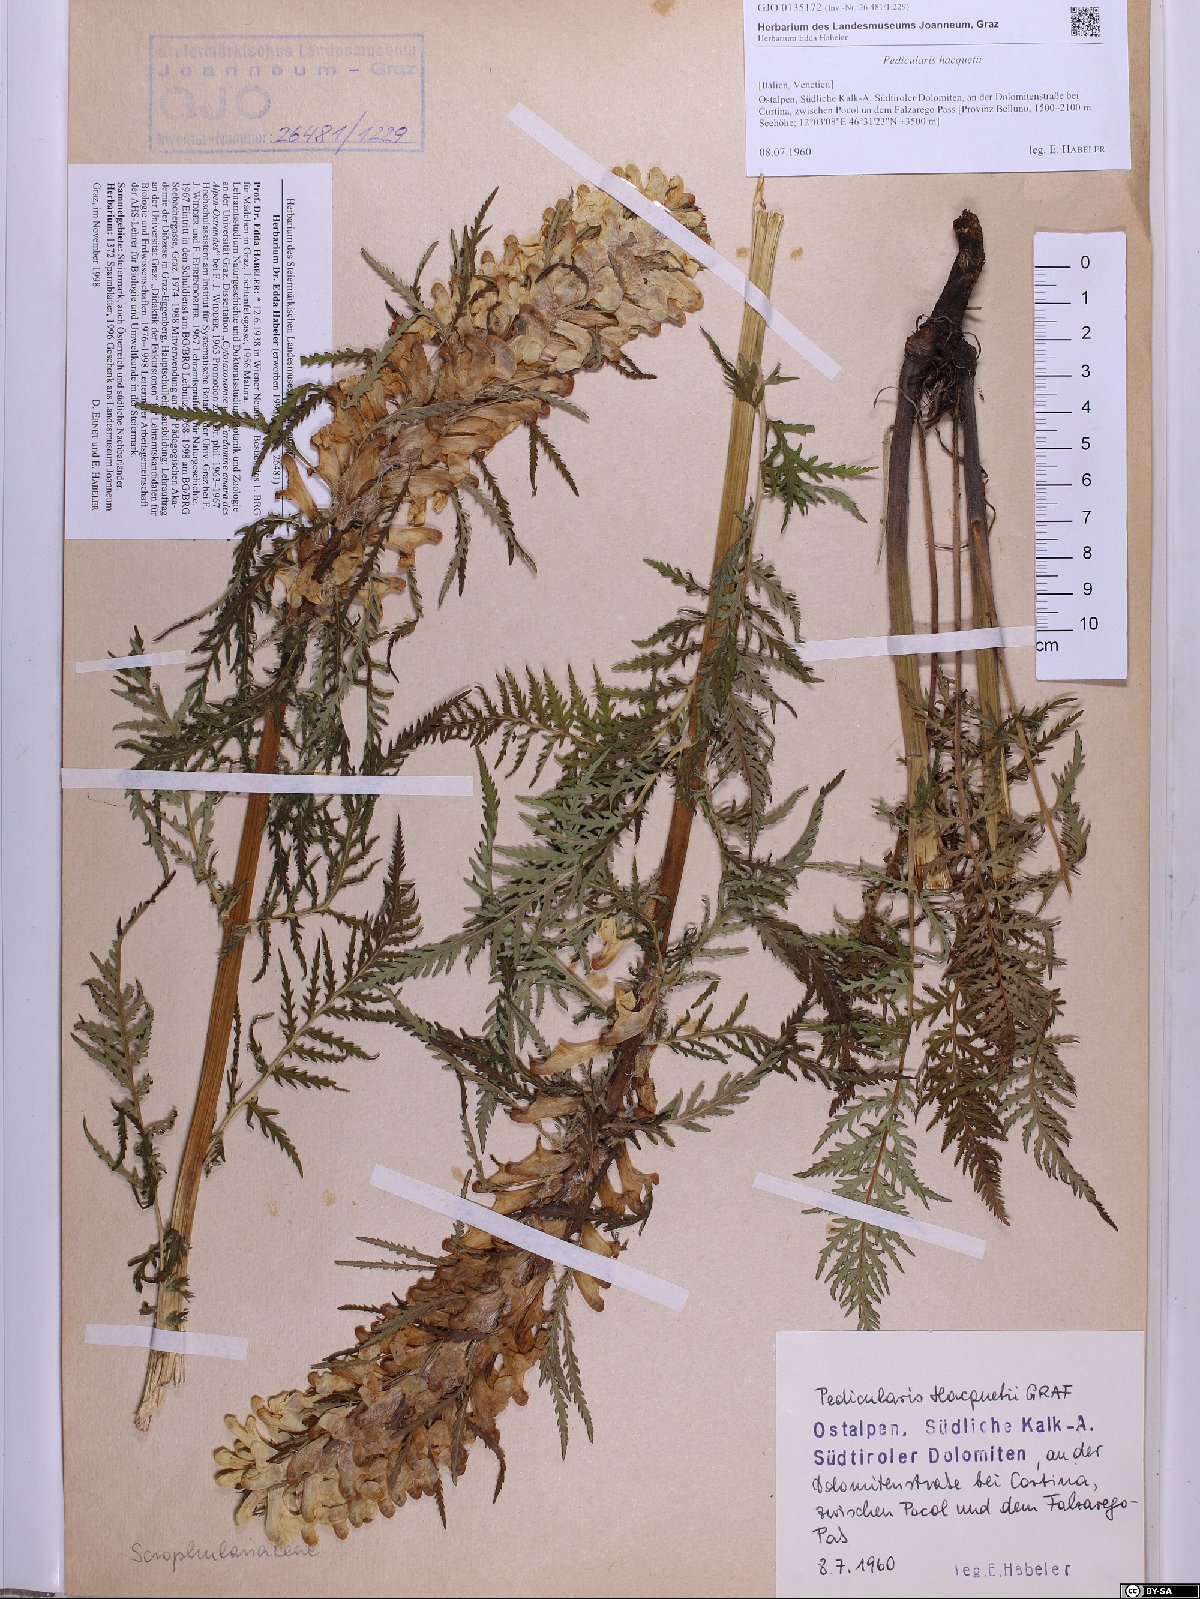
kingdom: Plantae
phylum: Tracheophyta
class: Magnoliopsida
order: Lamiales
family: Orobanchaceae
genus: Pedicularis
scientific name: Pedicularis hacquetii
